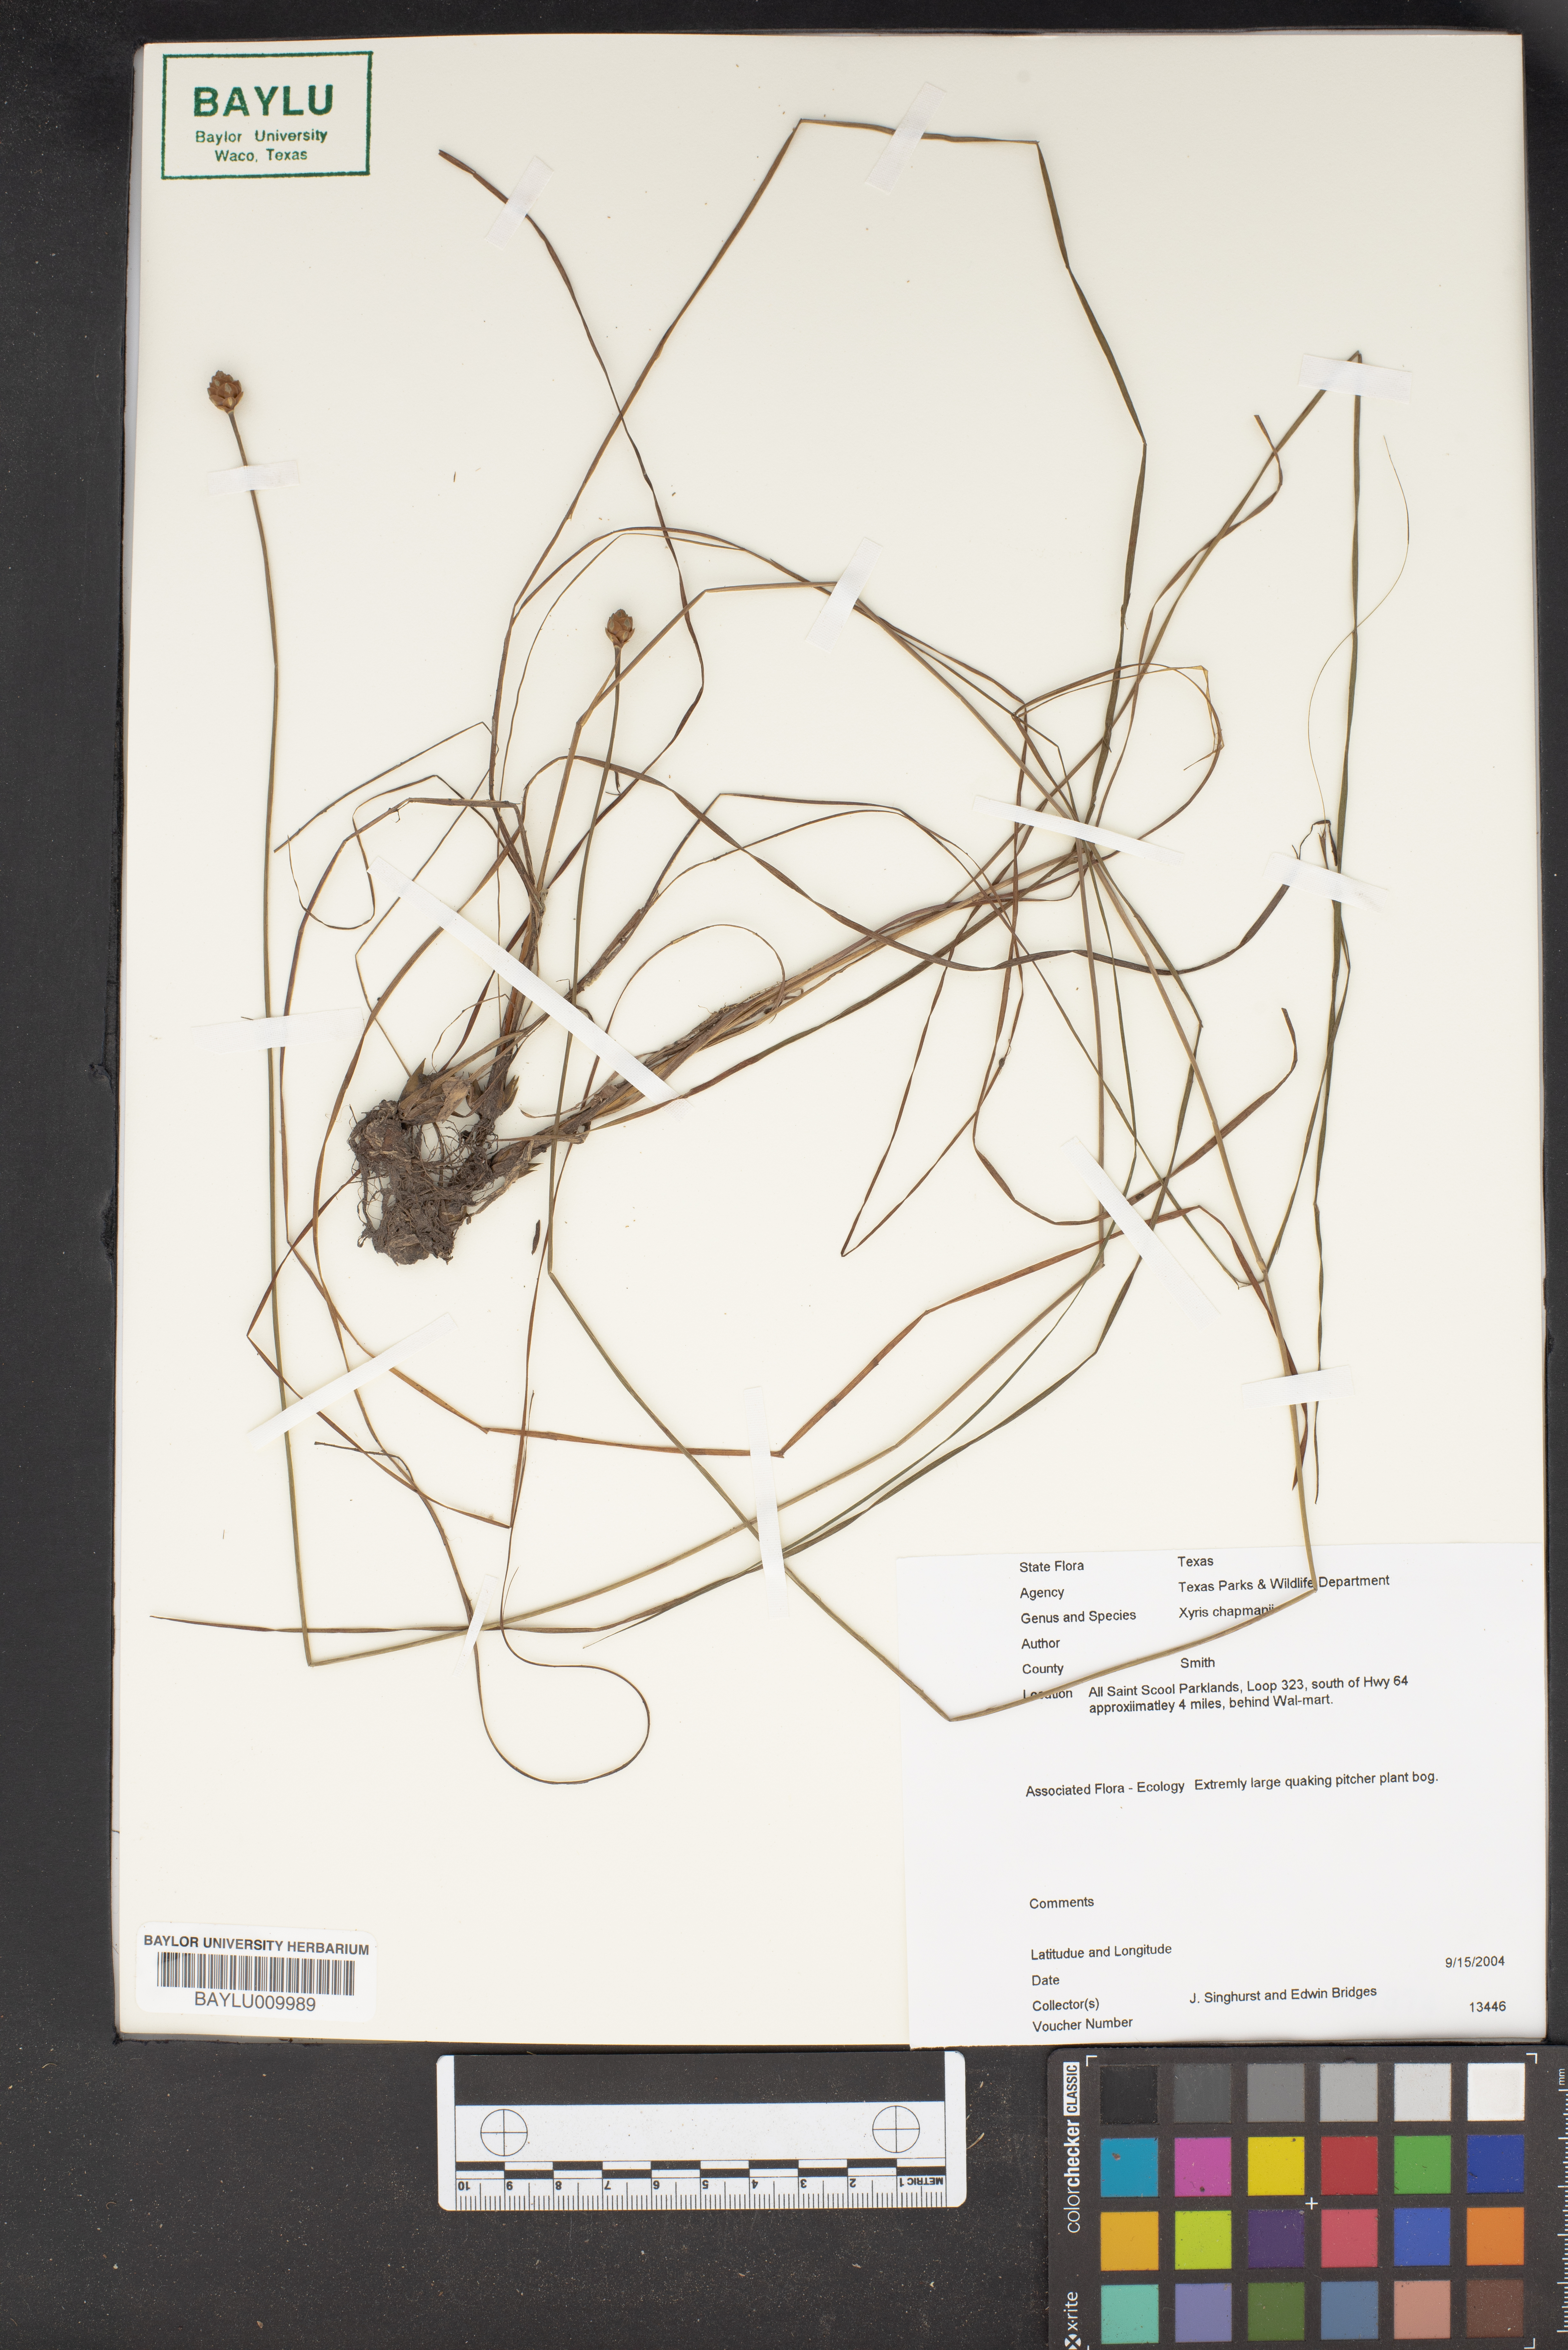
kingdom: Plantae
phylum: Tracheophyta
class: Liliopsida
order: Poales
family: Xyridaceae
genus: Xyris
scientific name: Xyris chapmanii
